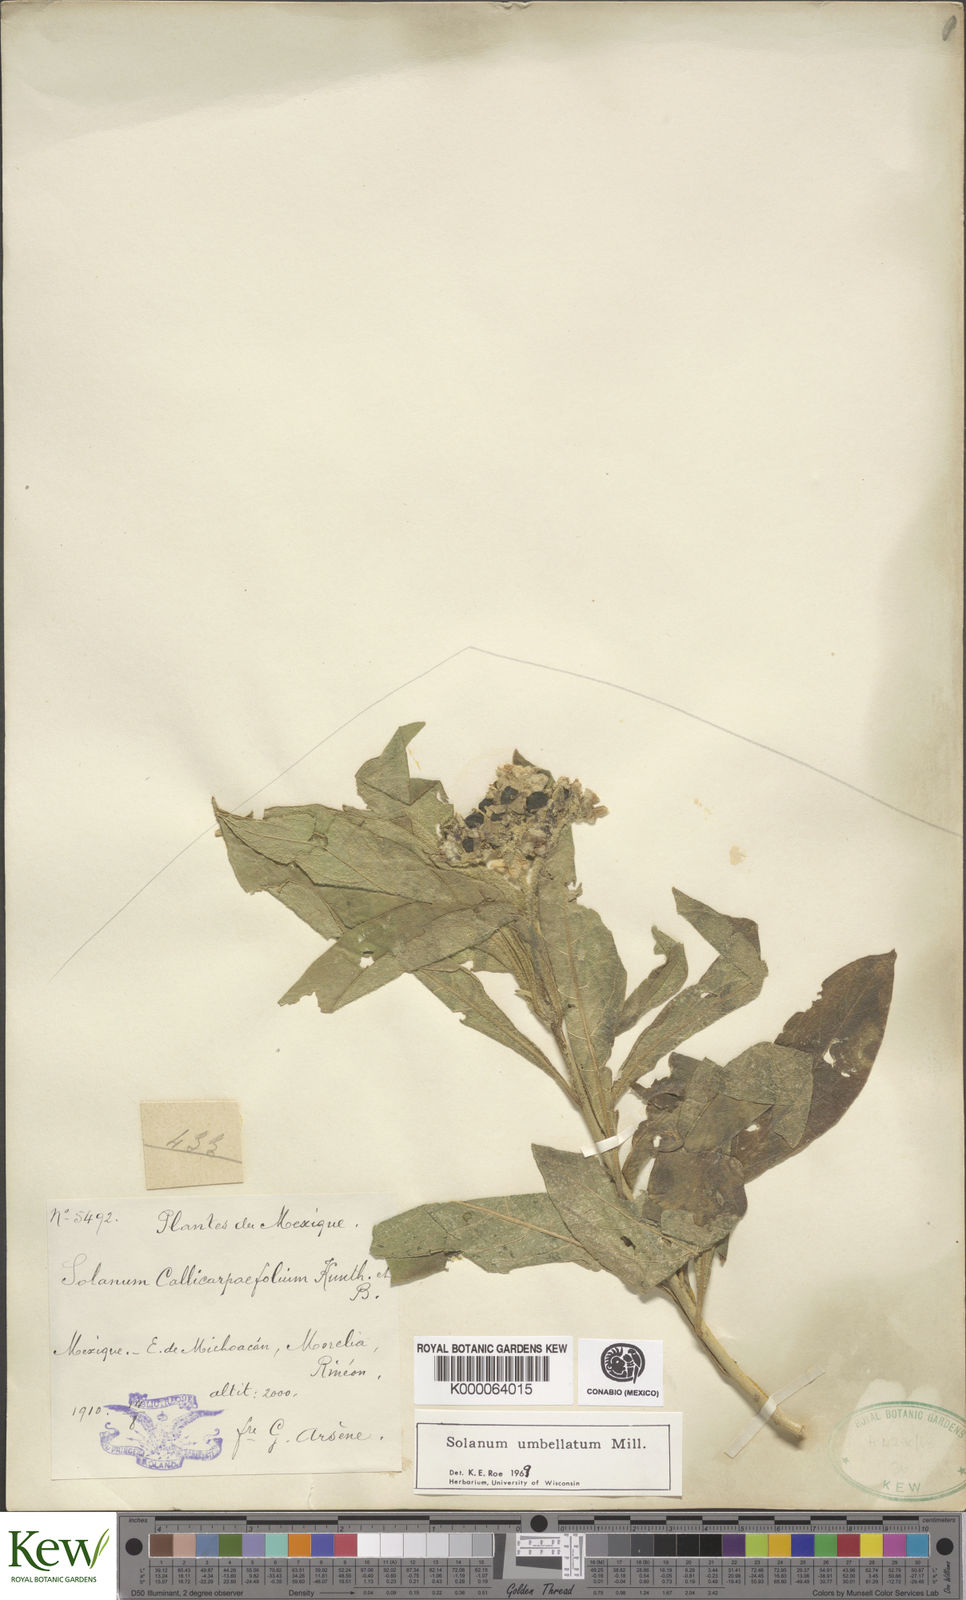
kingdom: Plantae
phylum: Tracheophyta
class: Magnoliopsida
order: Solanales
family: Solanaceae
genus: Solanum
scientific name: Solanum umbellatum
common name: Nightshade
